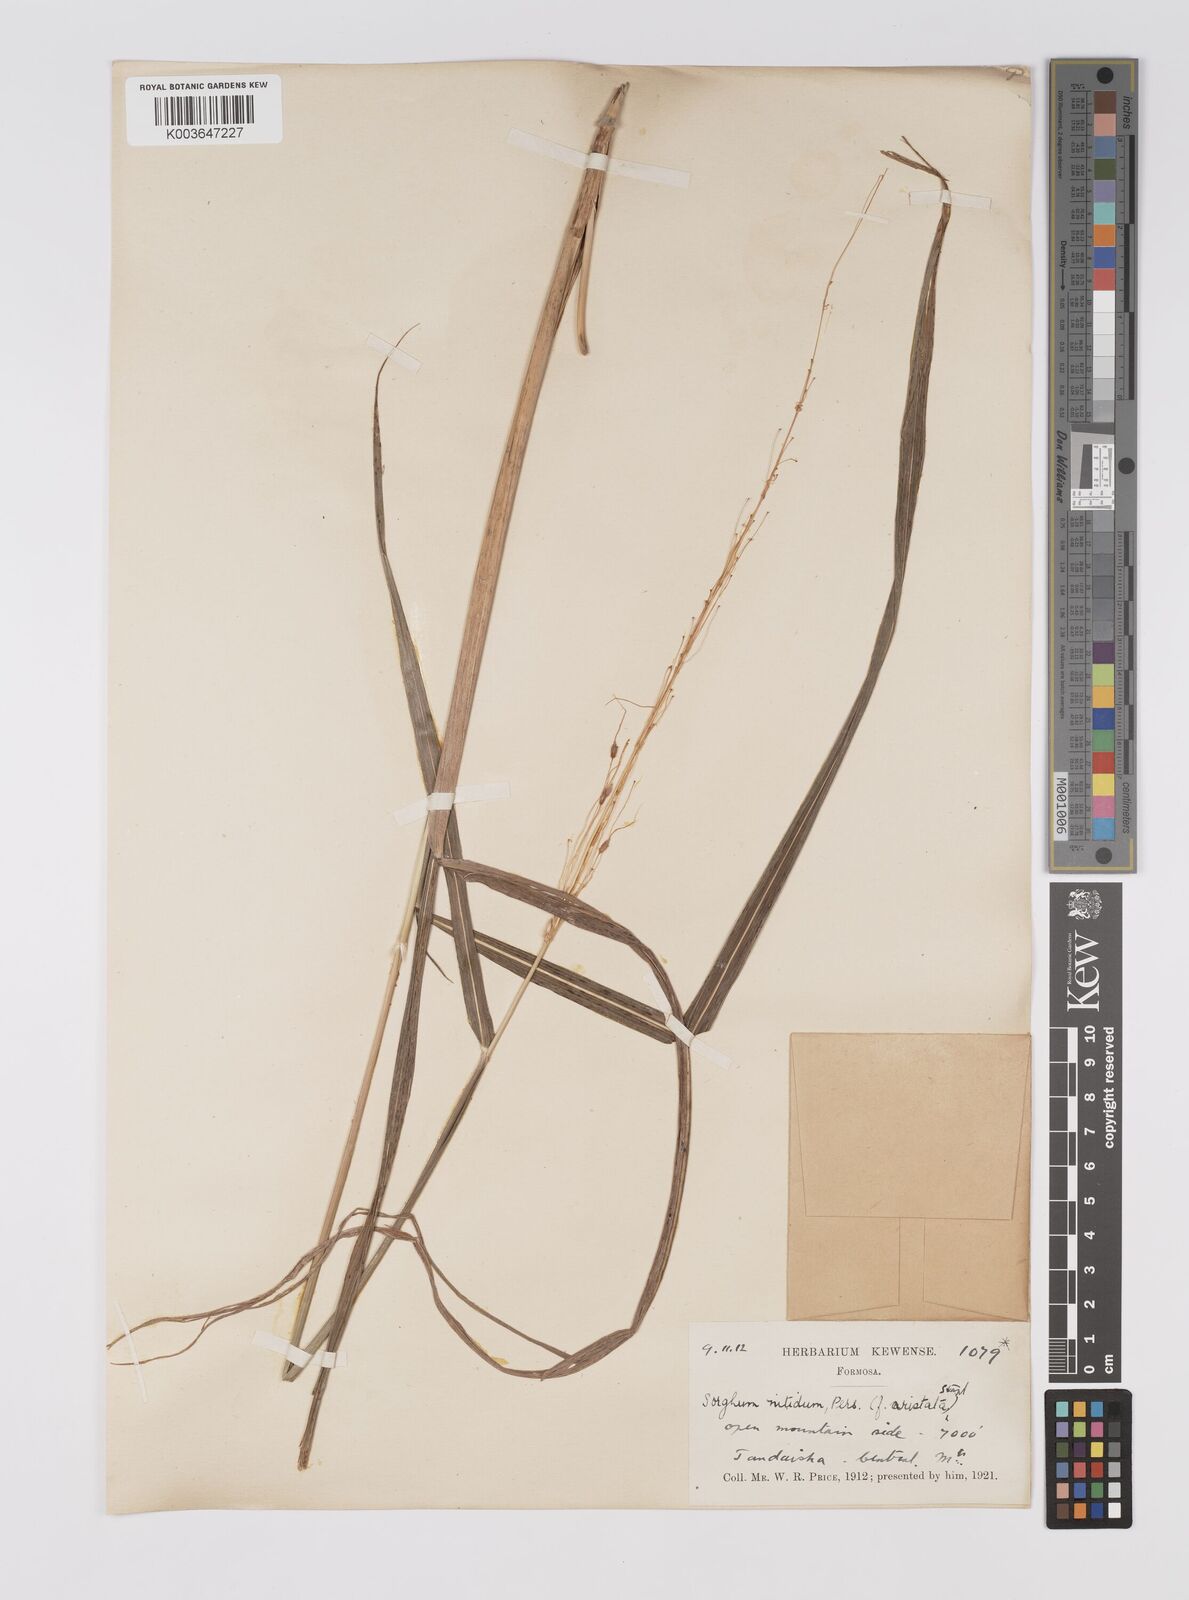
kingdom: Plantae
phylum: Tracheophyta
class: Liliopsida
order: Poales
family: Poaceae
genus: Sorghum
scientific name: Sorghum nitidum
